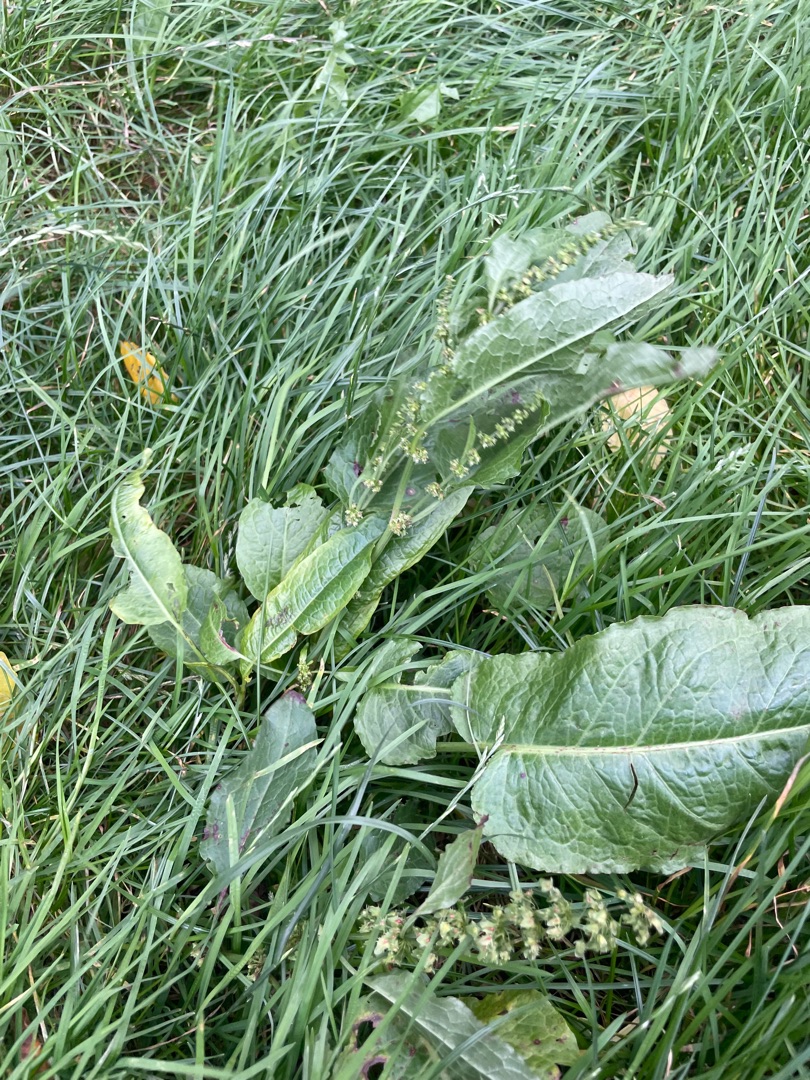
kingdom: Plantae
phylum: Tracheophyta
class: Magnoliopsida
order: Caryophyllales
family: Polygonaceae
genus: Rumex
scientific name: Rumex obtusifolius
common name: Butbladet skræppe
